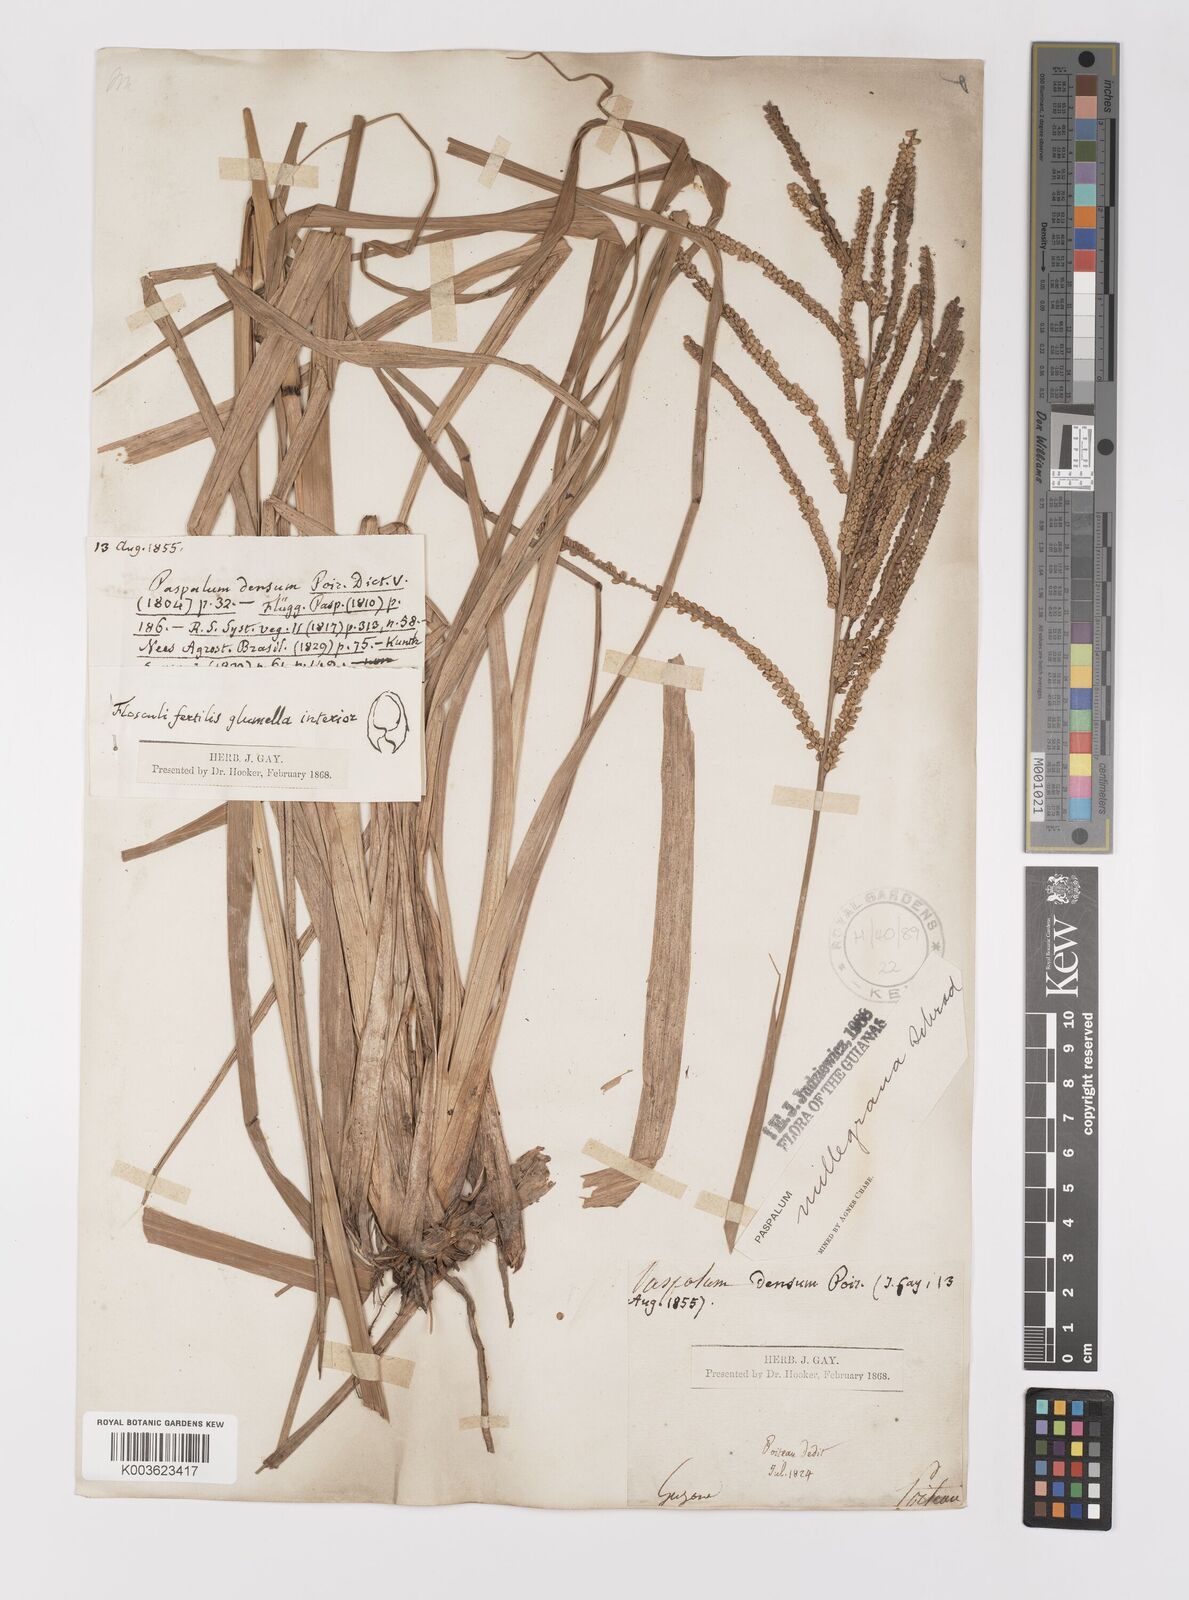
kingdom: Plantae
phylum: Tracheophyta
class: Liliopsida
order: Poales
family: Poaceae
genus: Paspalum
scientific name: Paspalum millegranum
